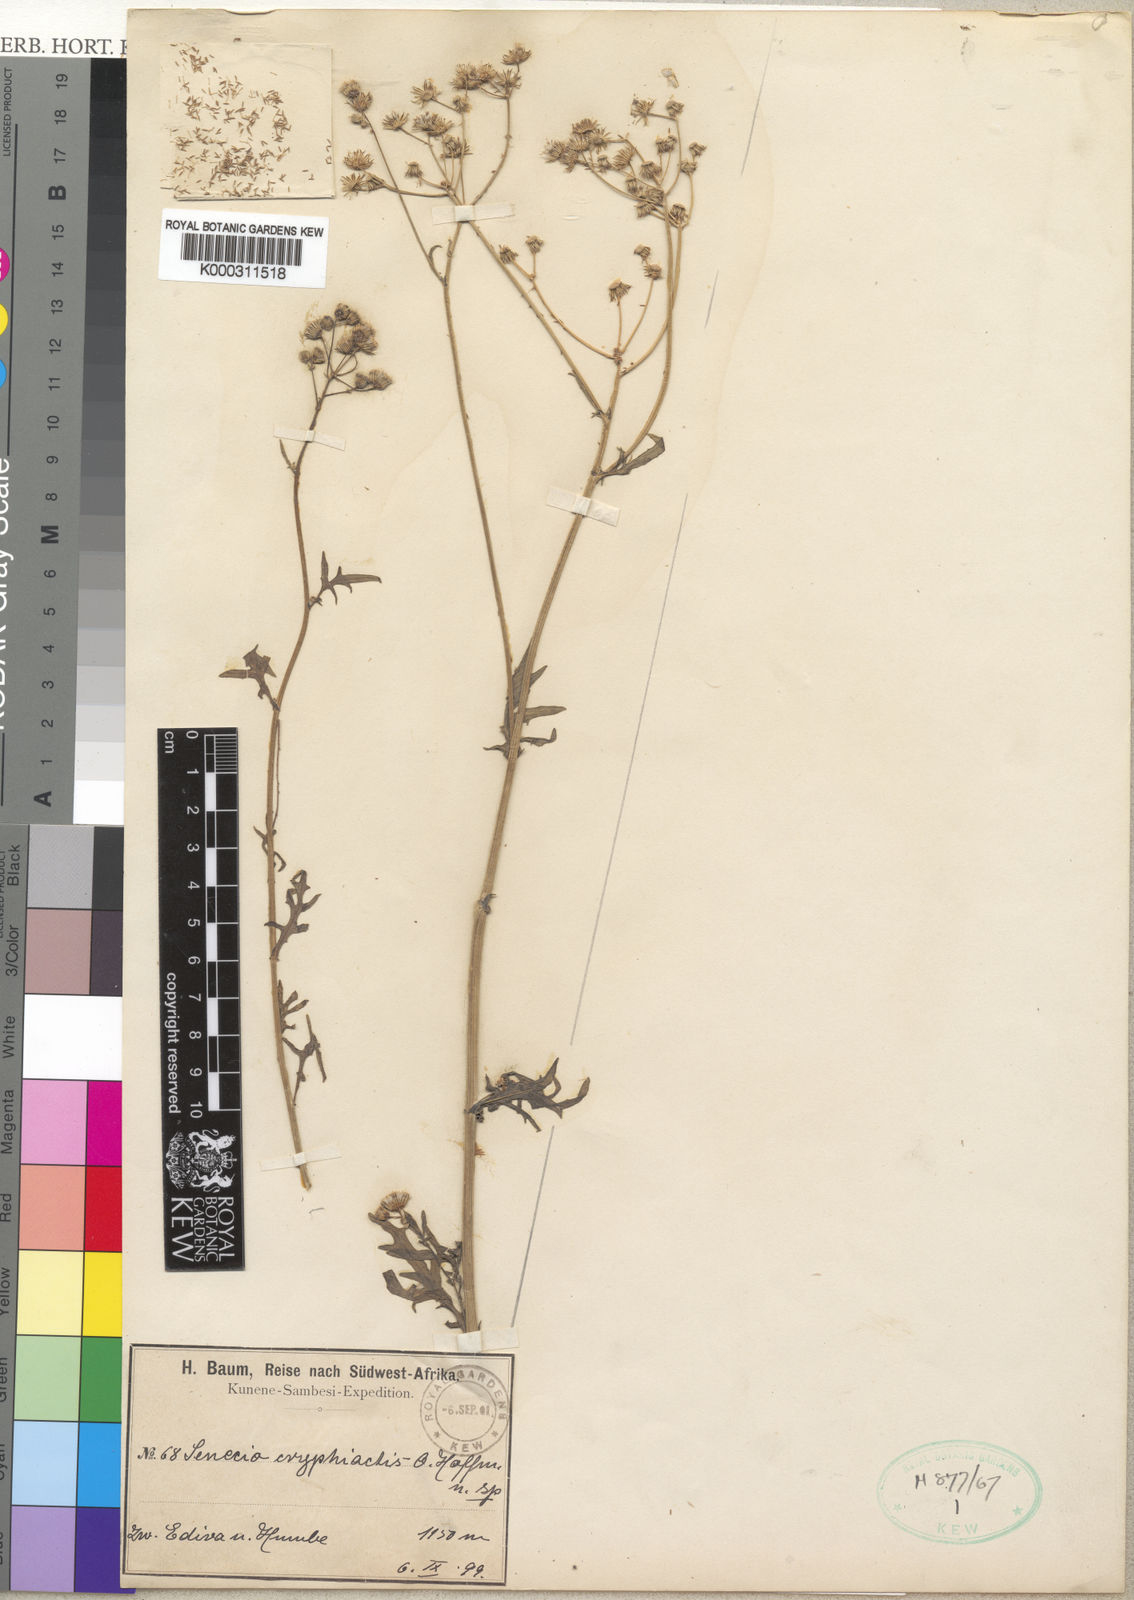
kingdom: Plantae
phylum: Tracheophyta
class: Magnoliopsida
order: Asterales
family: Asteraceae
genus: Senecio
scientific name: Senecio cryphiactis
